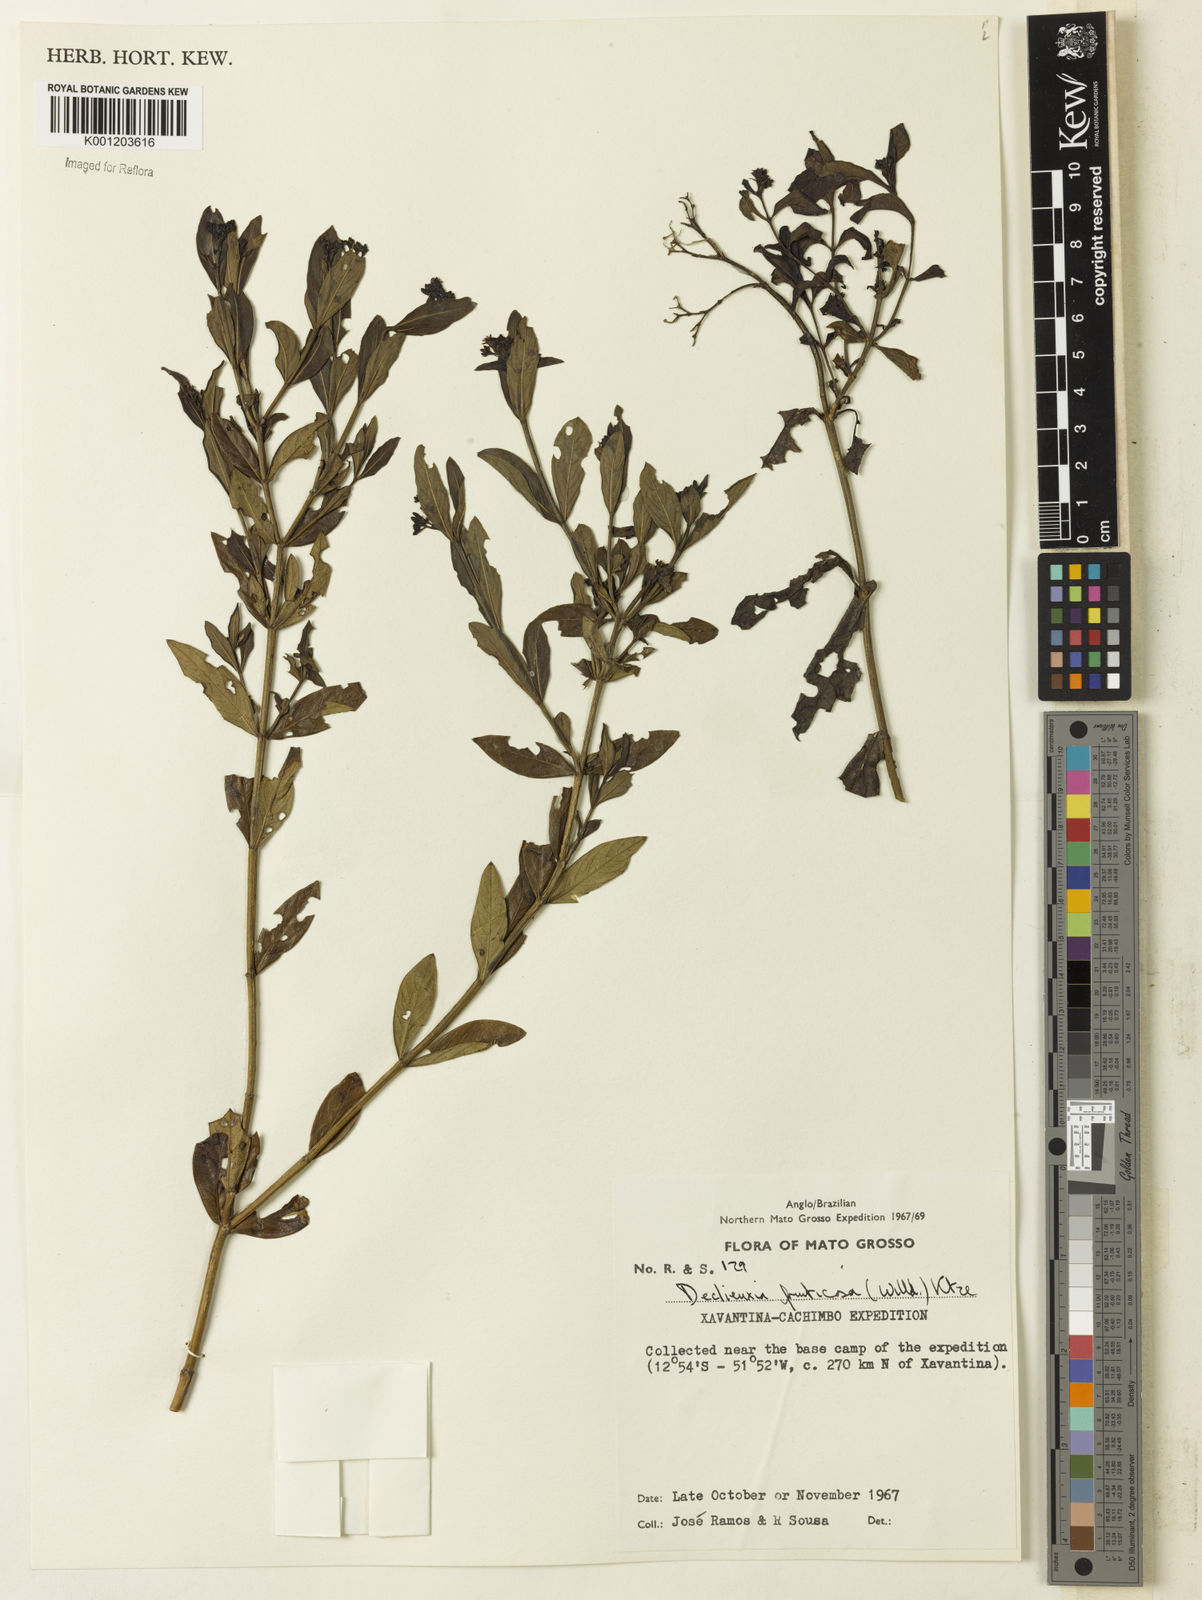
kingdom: Plantae
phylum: Tracheophyta
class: Magnoliopsida
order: Gentianales
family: Rubiaceae
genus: Declieuxia
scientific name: Declieuxia fruticosa
